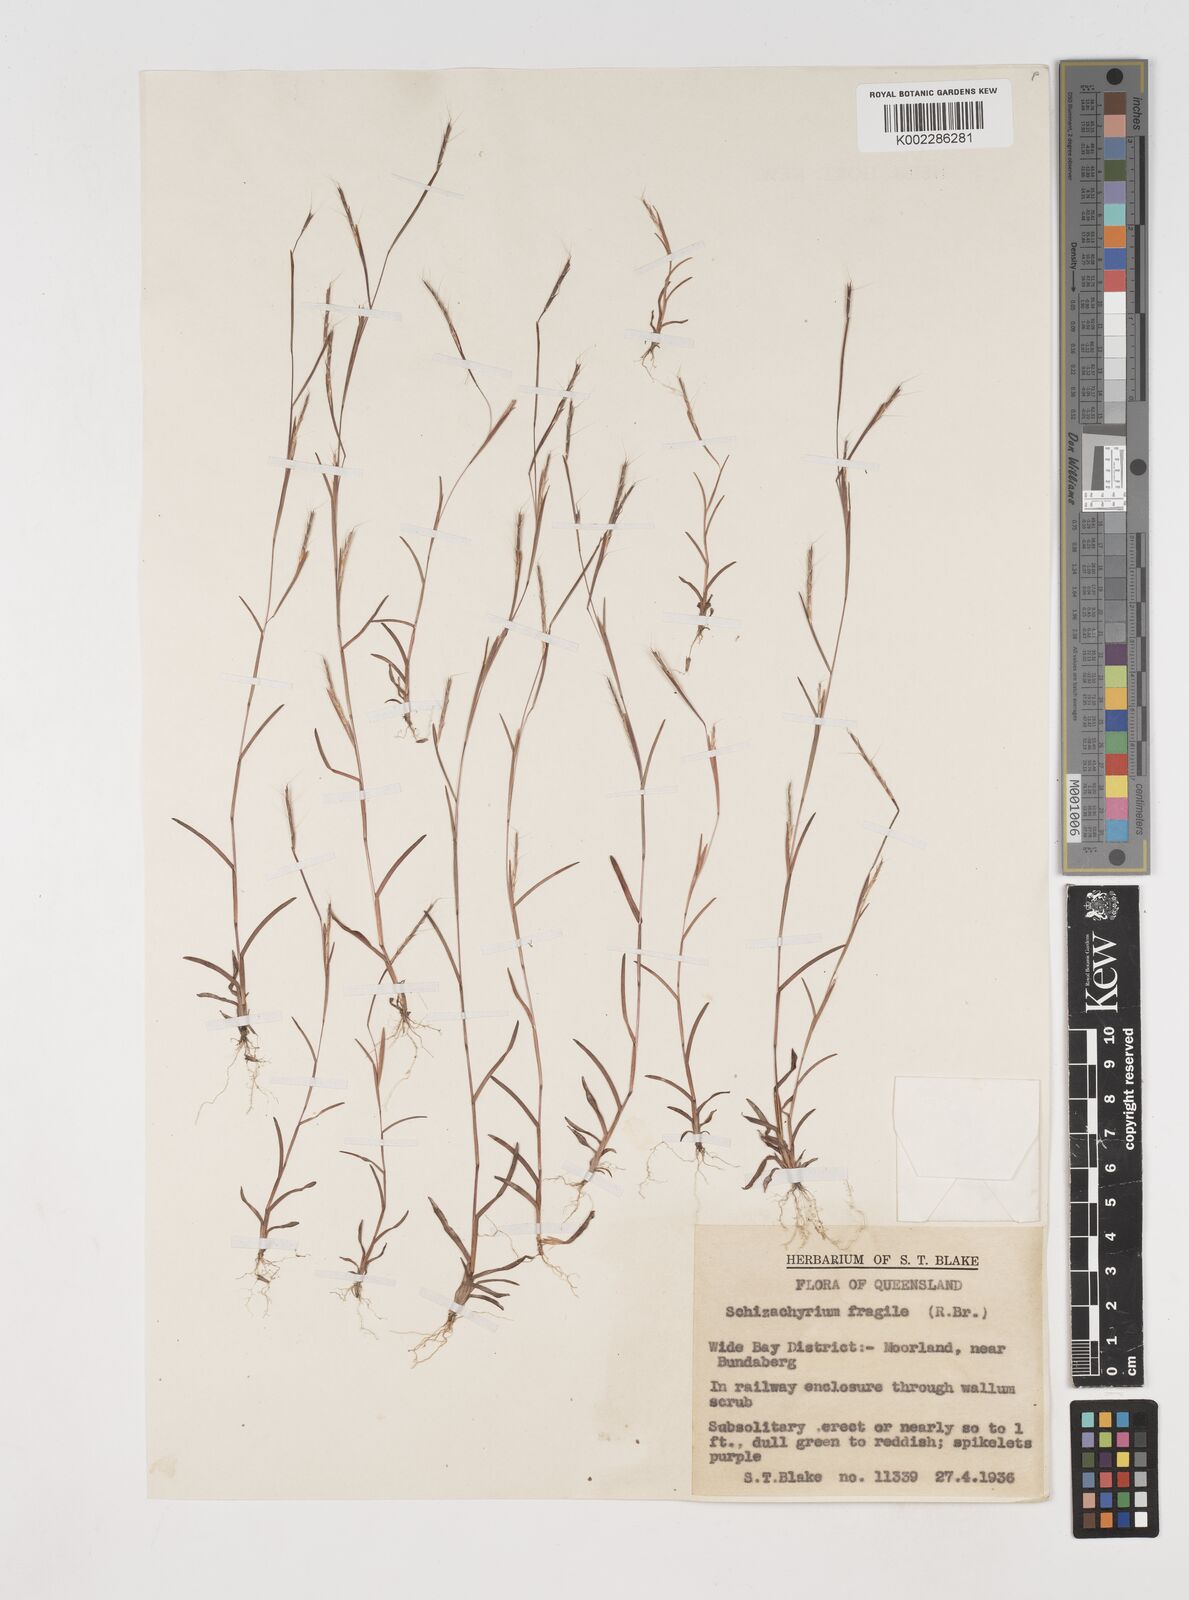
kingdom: Plantae
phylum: Tracheophyta
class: Liliopsida
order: Poales
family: Poaceae
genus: Schizachyrium
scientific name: Schizachyrium pseudeulalia
